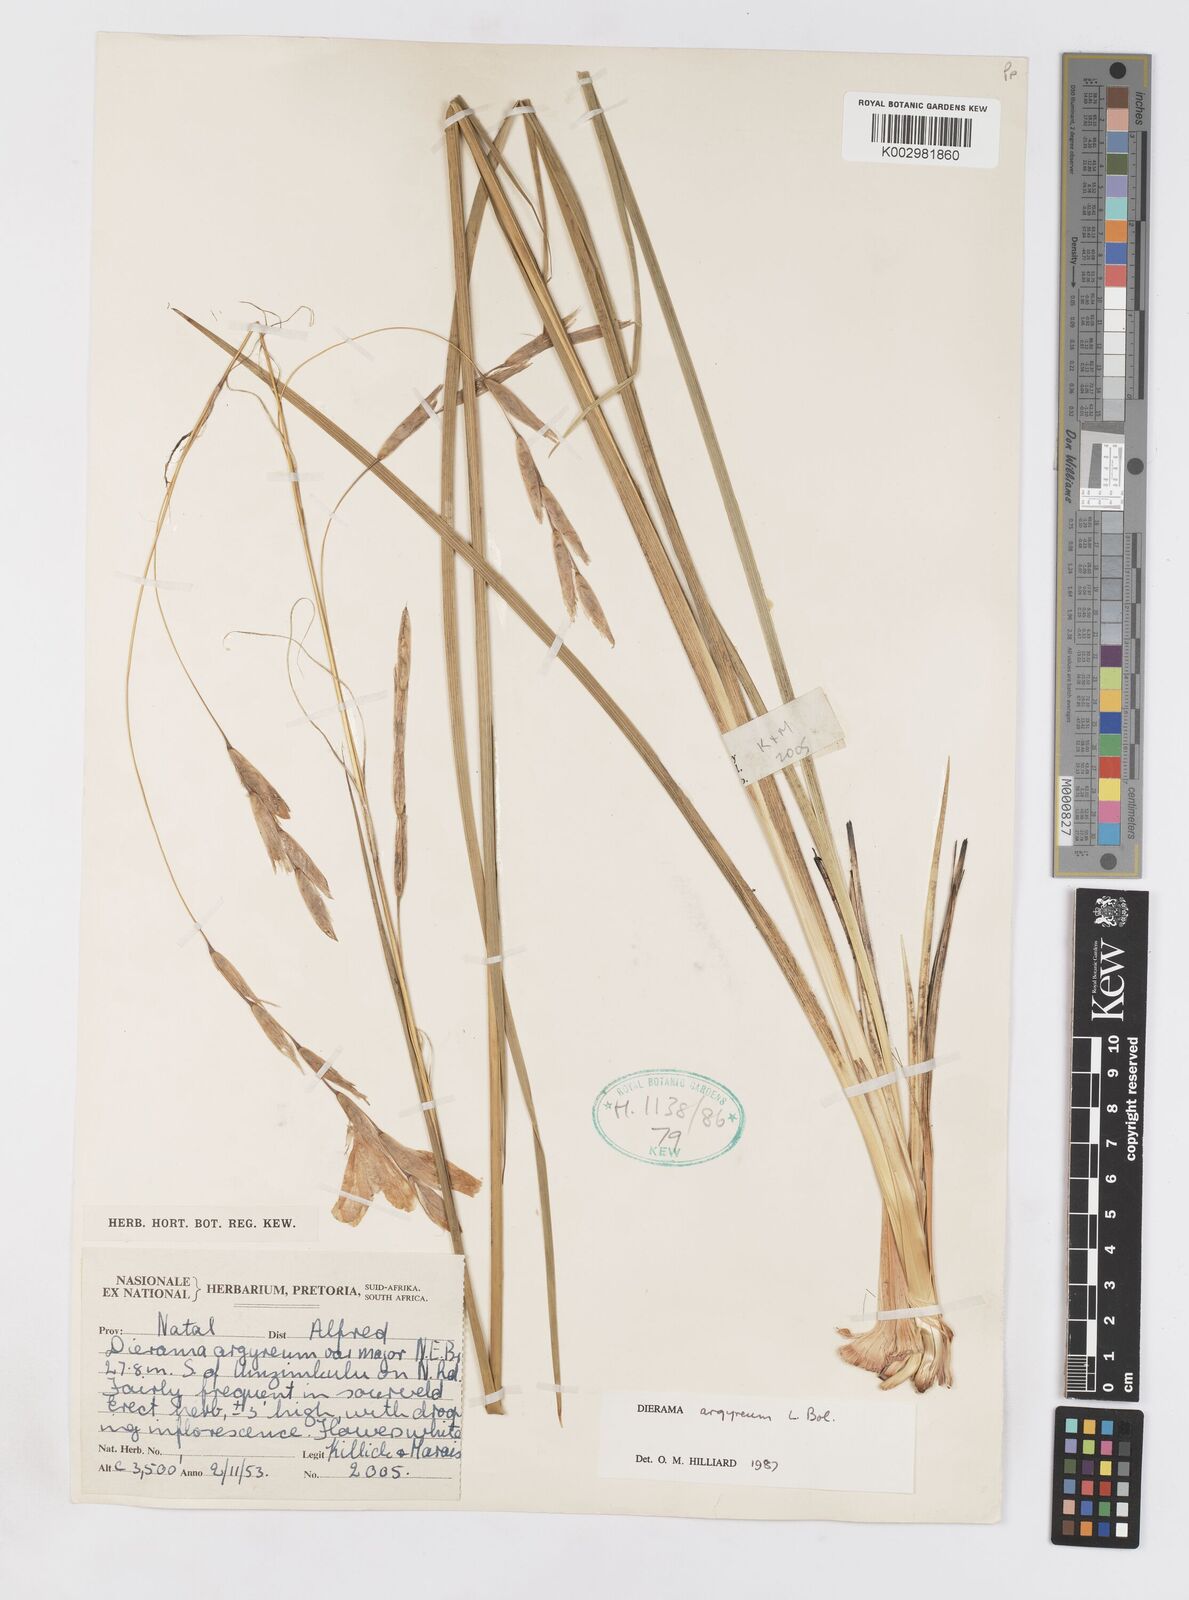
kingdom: Plantae
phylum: Tracheophyta
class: Liliopsida
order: Asparagales
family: Iridaceae
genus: Dierama
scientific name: Dierama argyreum
